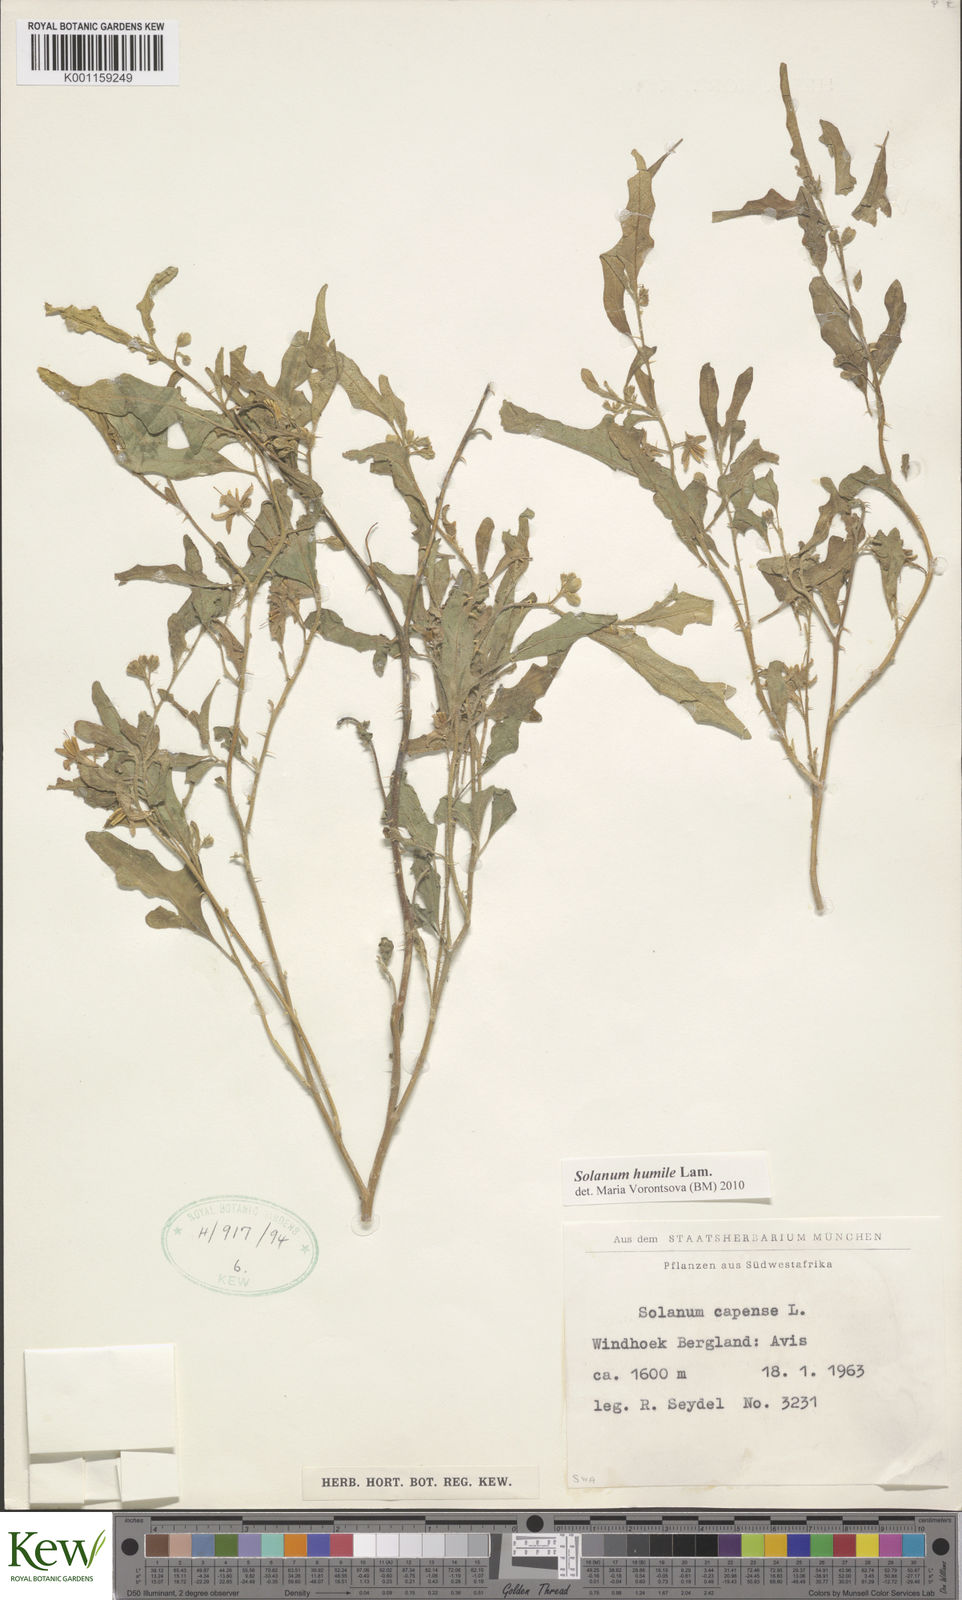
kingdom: Plantae
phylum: Tracheophyta
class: Magnoliopsida
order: Solanales
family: Solanaceae
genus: Solanum
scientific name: Solanum humile
